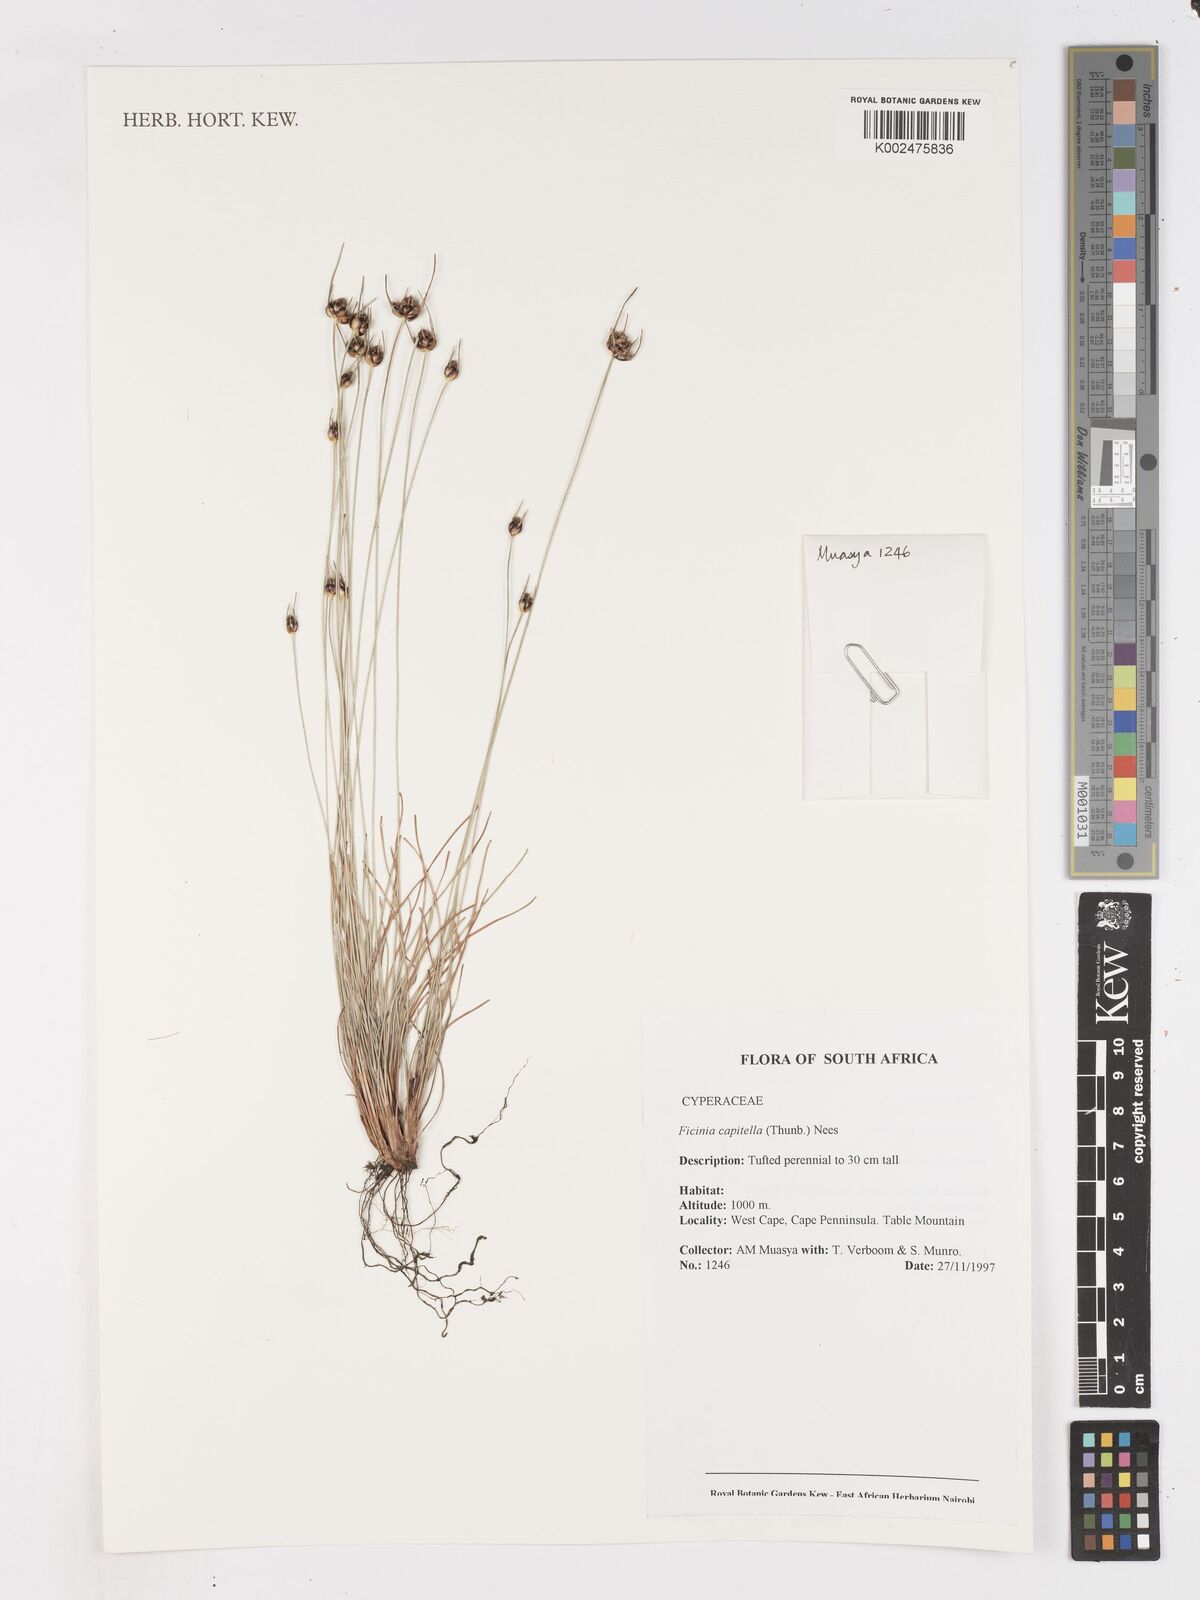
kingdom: Plantae
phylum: Tracheophyta
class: Liliopsida
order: Poales
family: Cyperaceae
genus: Ficinia
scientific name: Ficinia capitella
